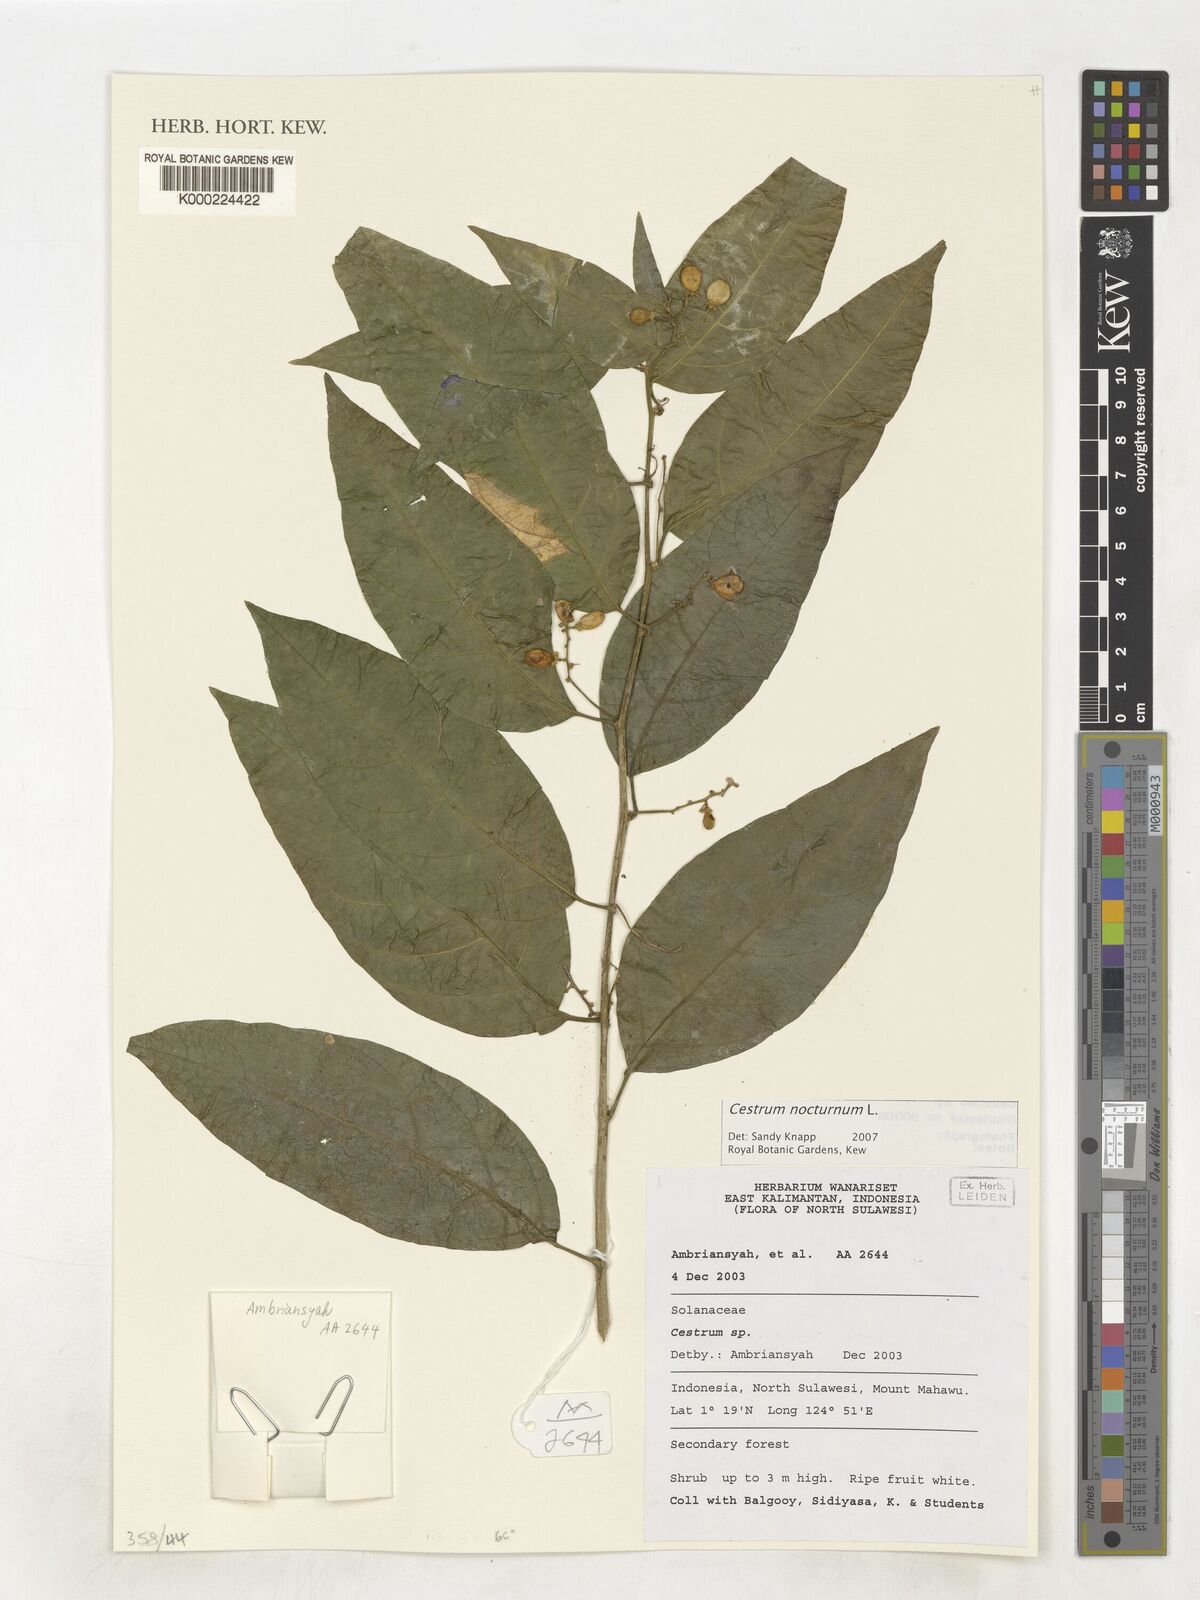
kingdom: Plantae
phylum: Tracheophyta
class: Magnoliopsida
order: Solanales
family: Solanaceae
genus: Cestrum
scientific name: Cestrum nocturnum
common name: Night jessamine
